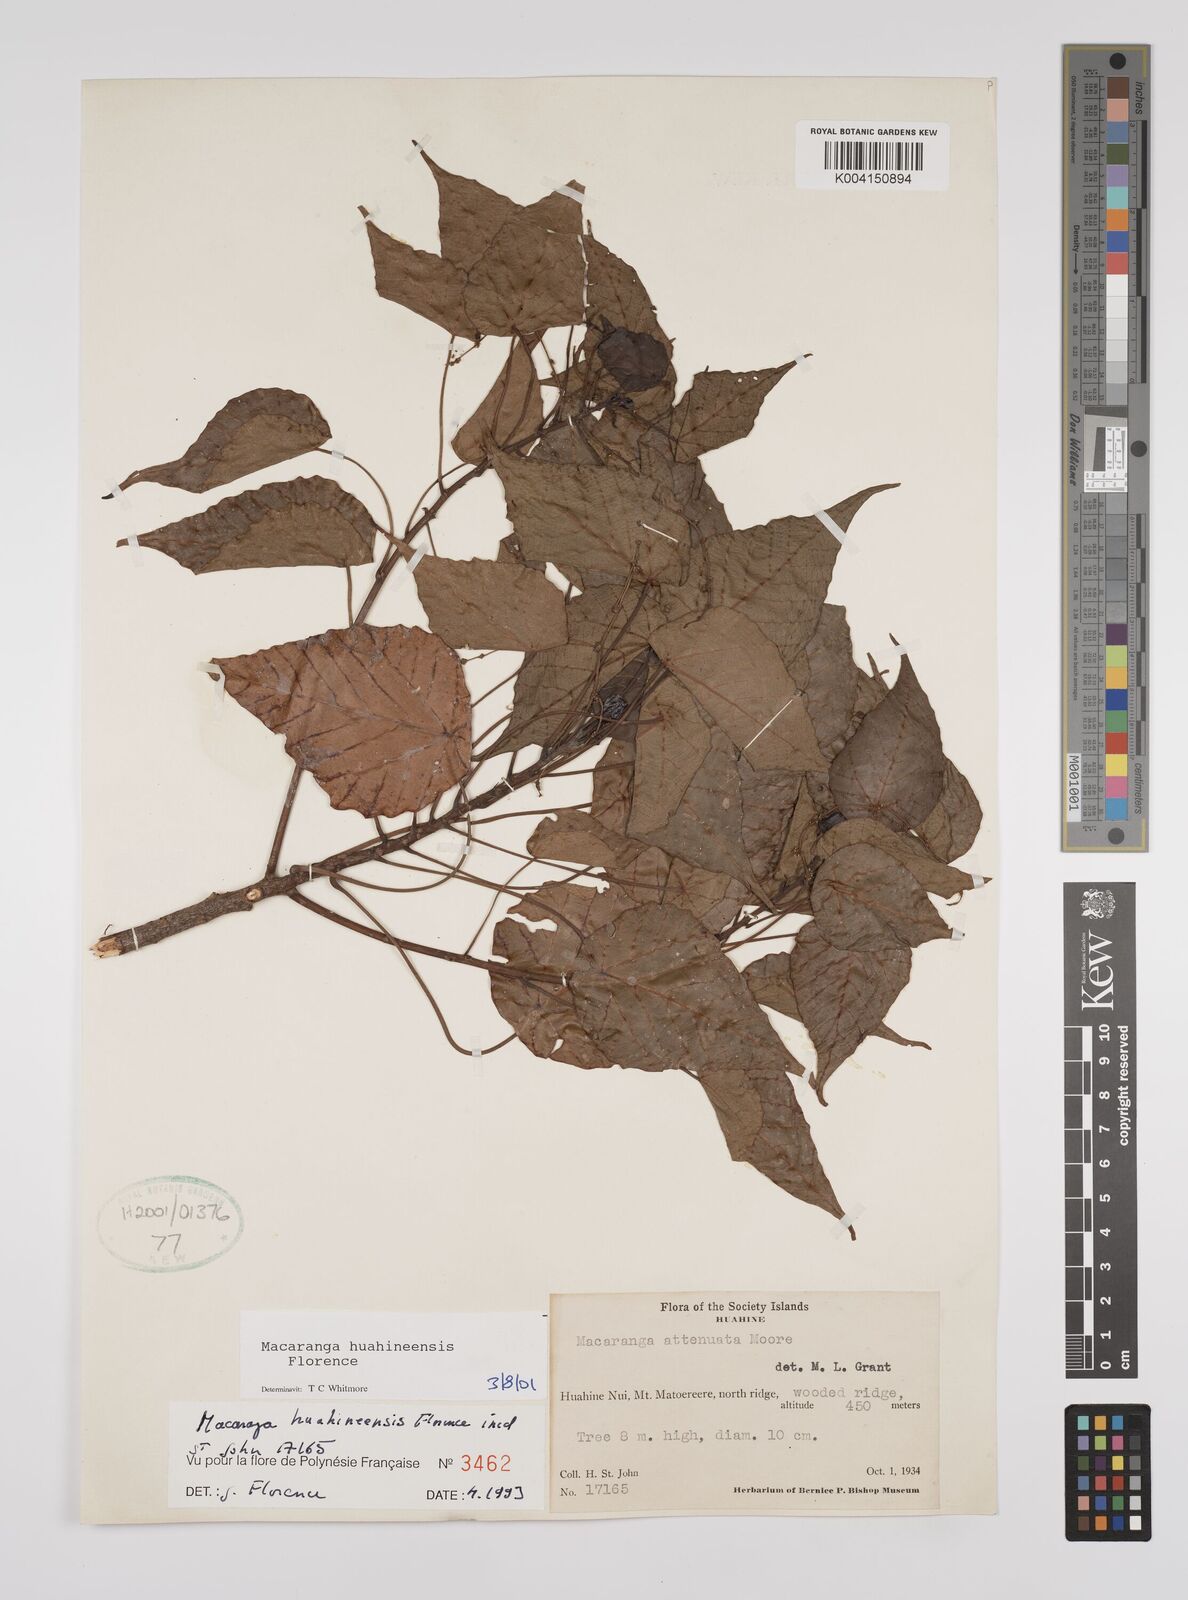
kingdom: Plantae
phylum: Tracheophyta
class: Magnoliopsida
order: Malpighiales
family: Euphorbiaceae
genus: Macaranga
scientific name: Macaranga huahineensis
